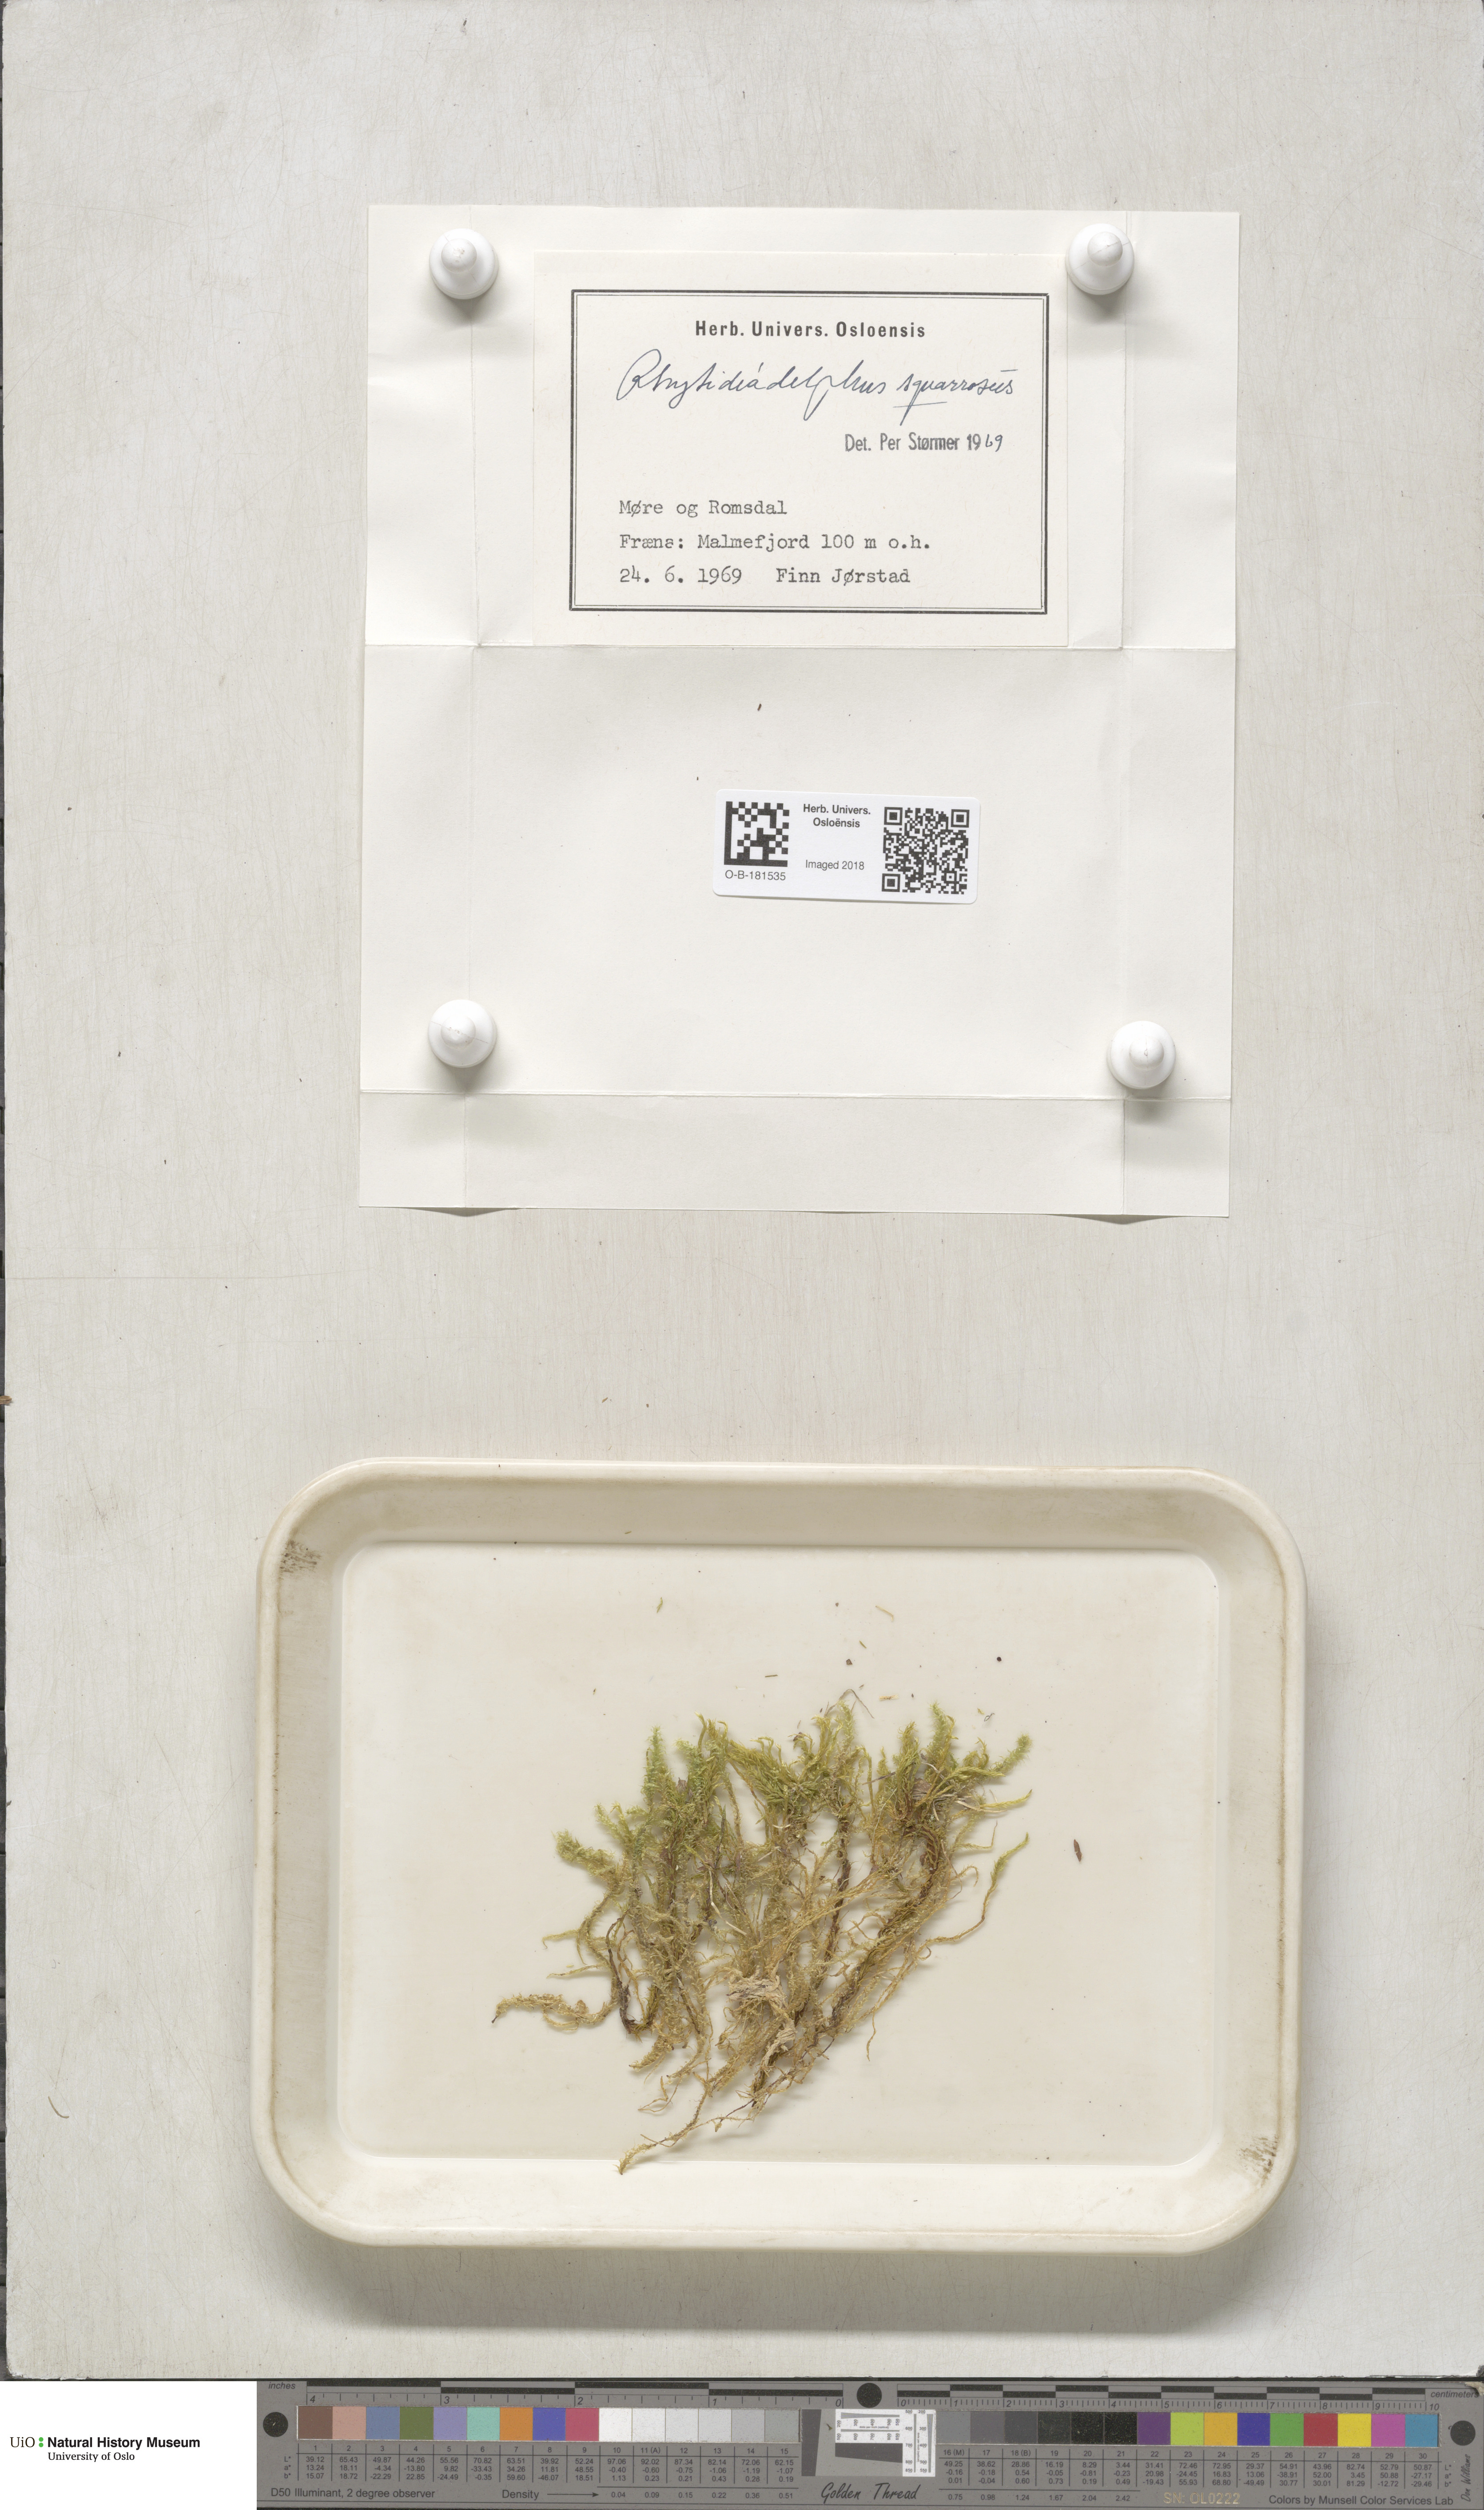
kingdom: Plantae
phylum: Bryophyta
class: Bryopsida
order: Hypnales
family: Hylocomiaceae
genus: Rhytidiadelphus
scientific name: Rhytidiadelphus squarrosus
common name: Springy turf-moss
